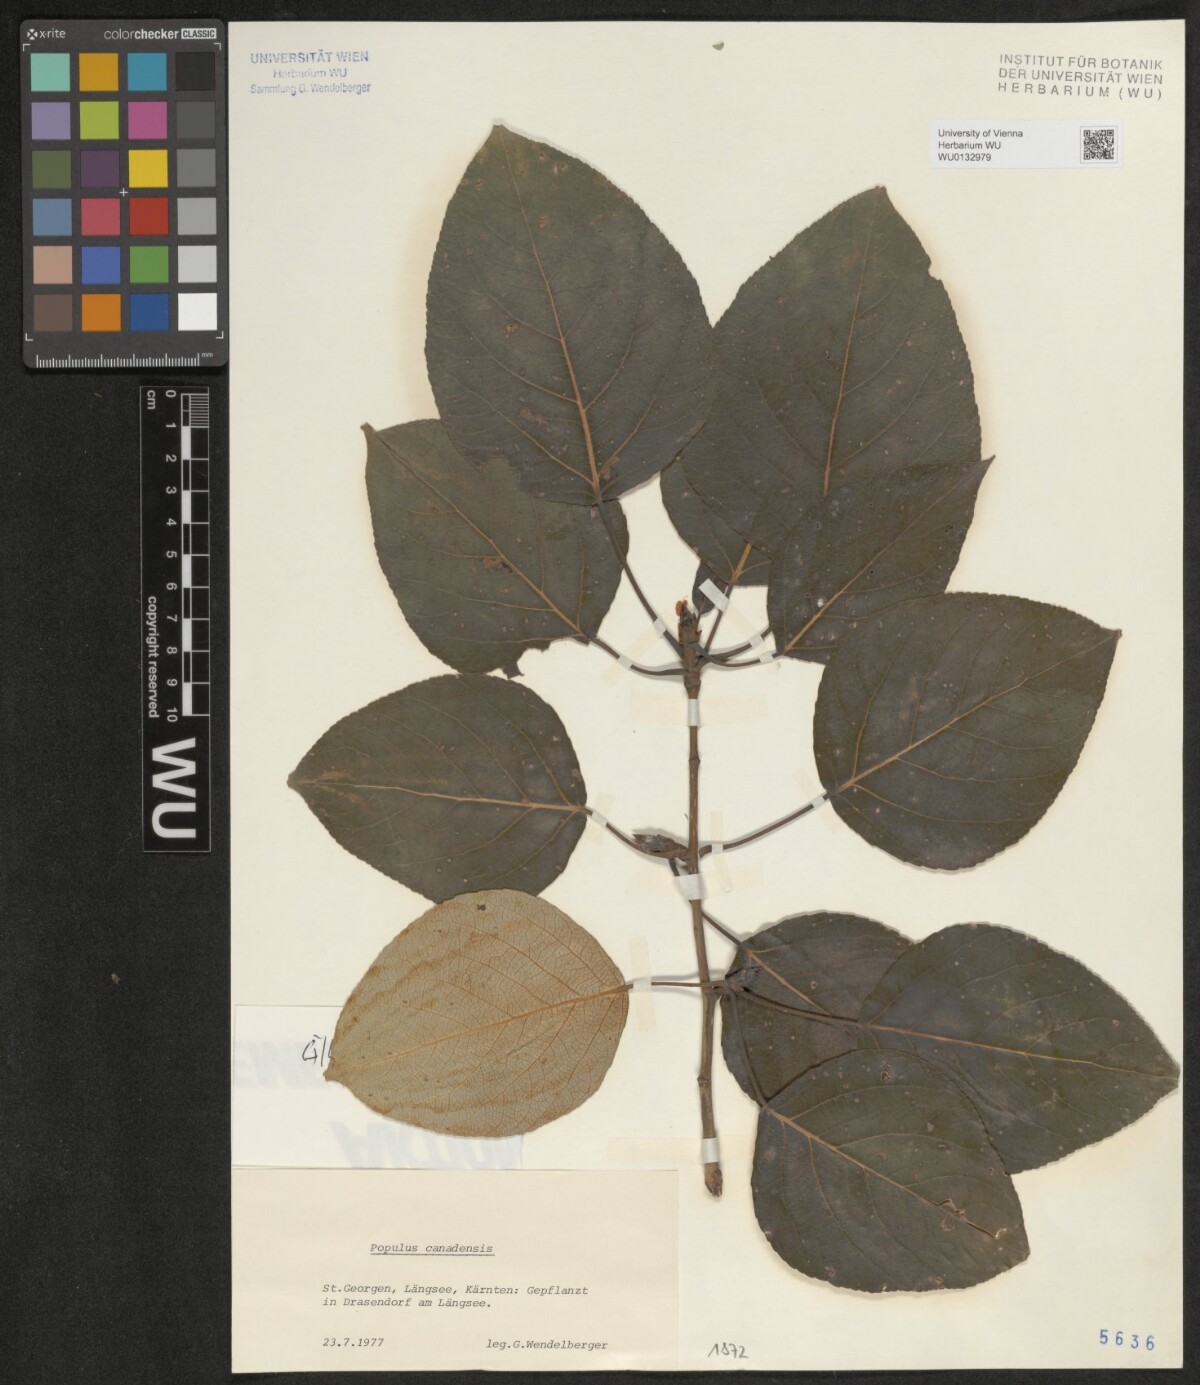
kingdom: Plantae
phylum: Tracheophyta
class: Magnoliopsida
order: Malpighiales
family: Salicaceae
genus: Populus
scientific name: Populus canadensis
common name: Carolina poplar
